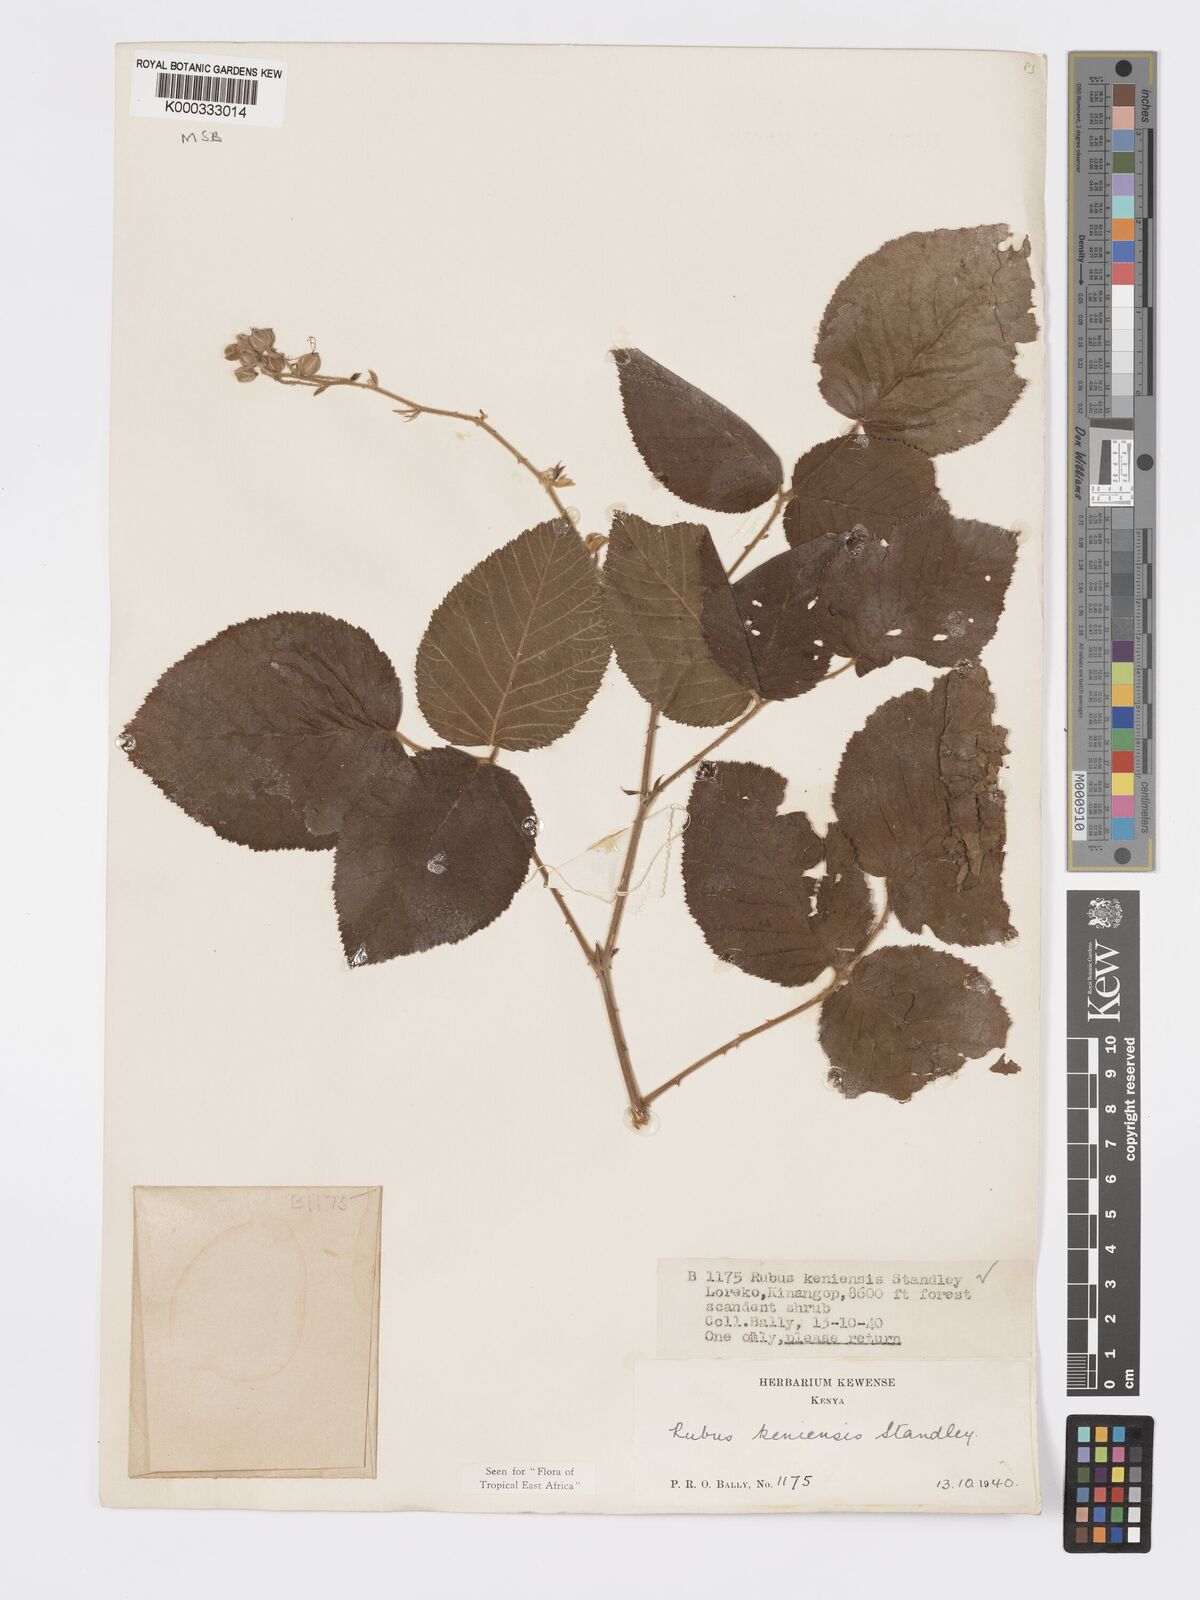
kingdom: Plantae
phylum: Tracheophyta
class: Magnoliopsida
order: Rosales
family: Rosaceae
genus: Rubus
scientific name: Rubus keniensis
